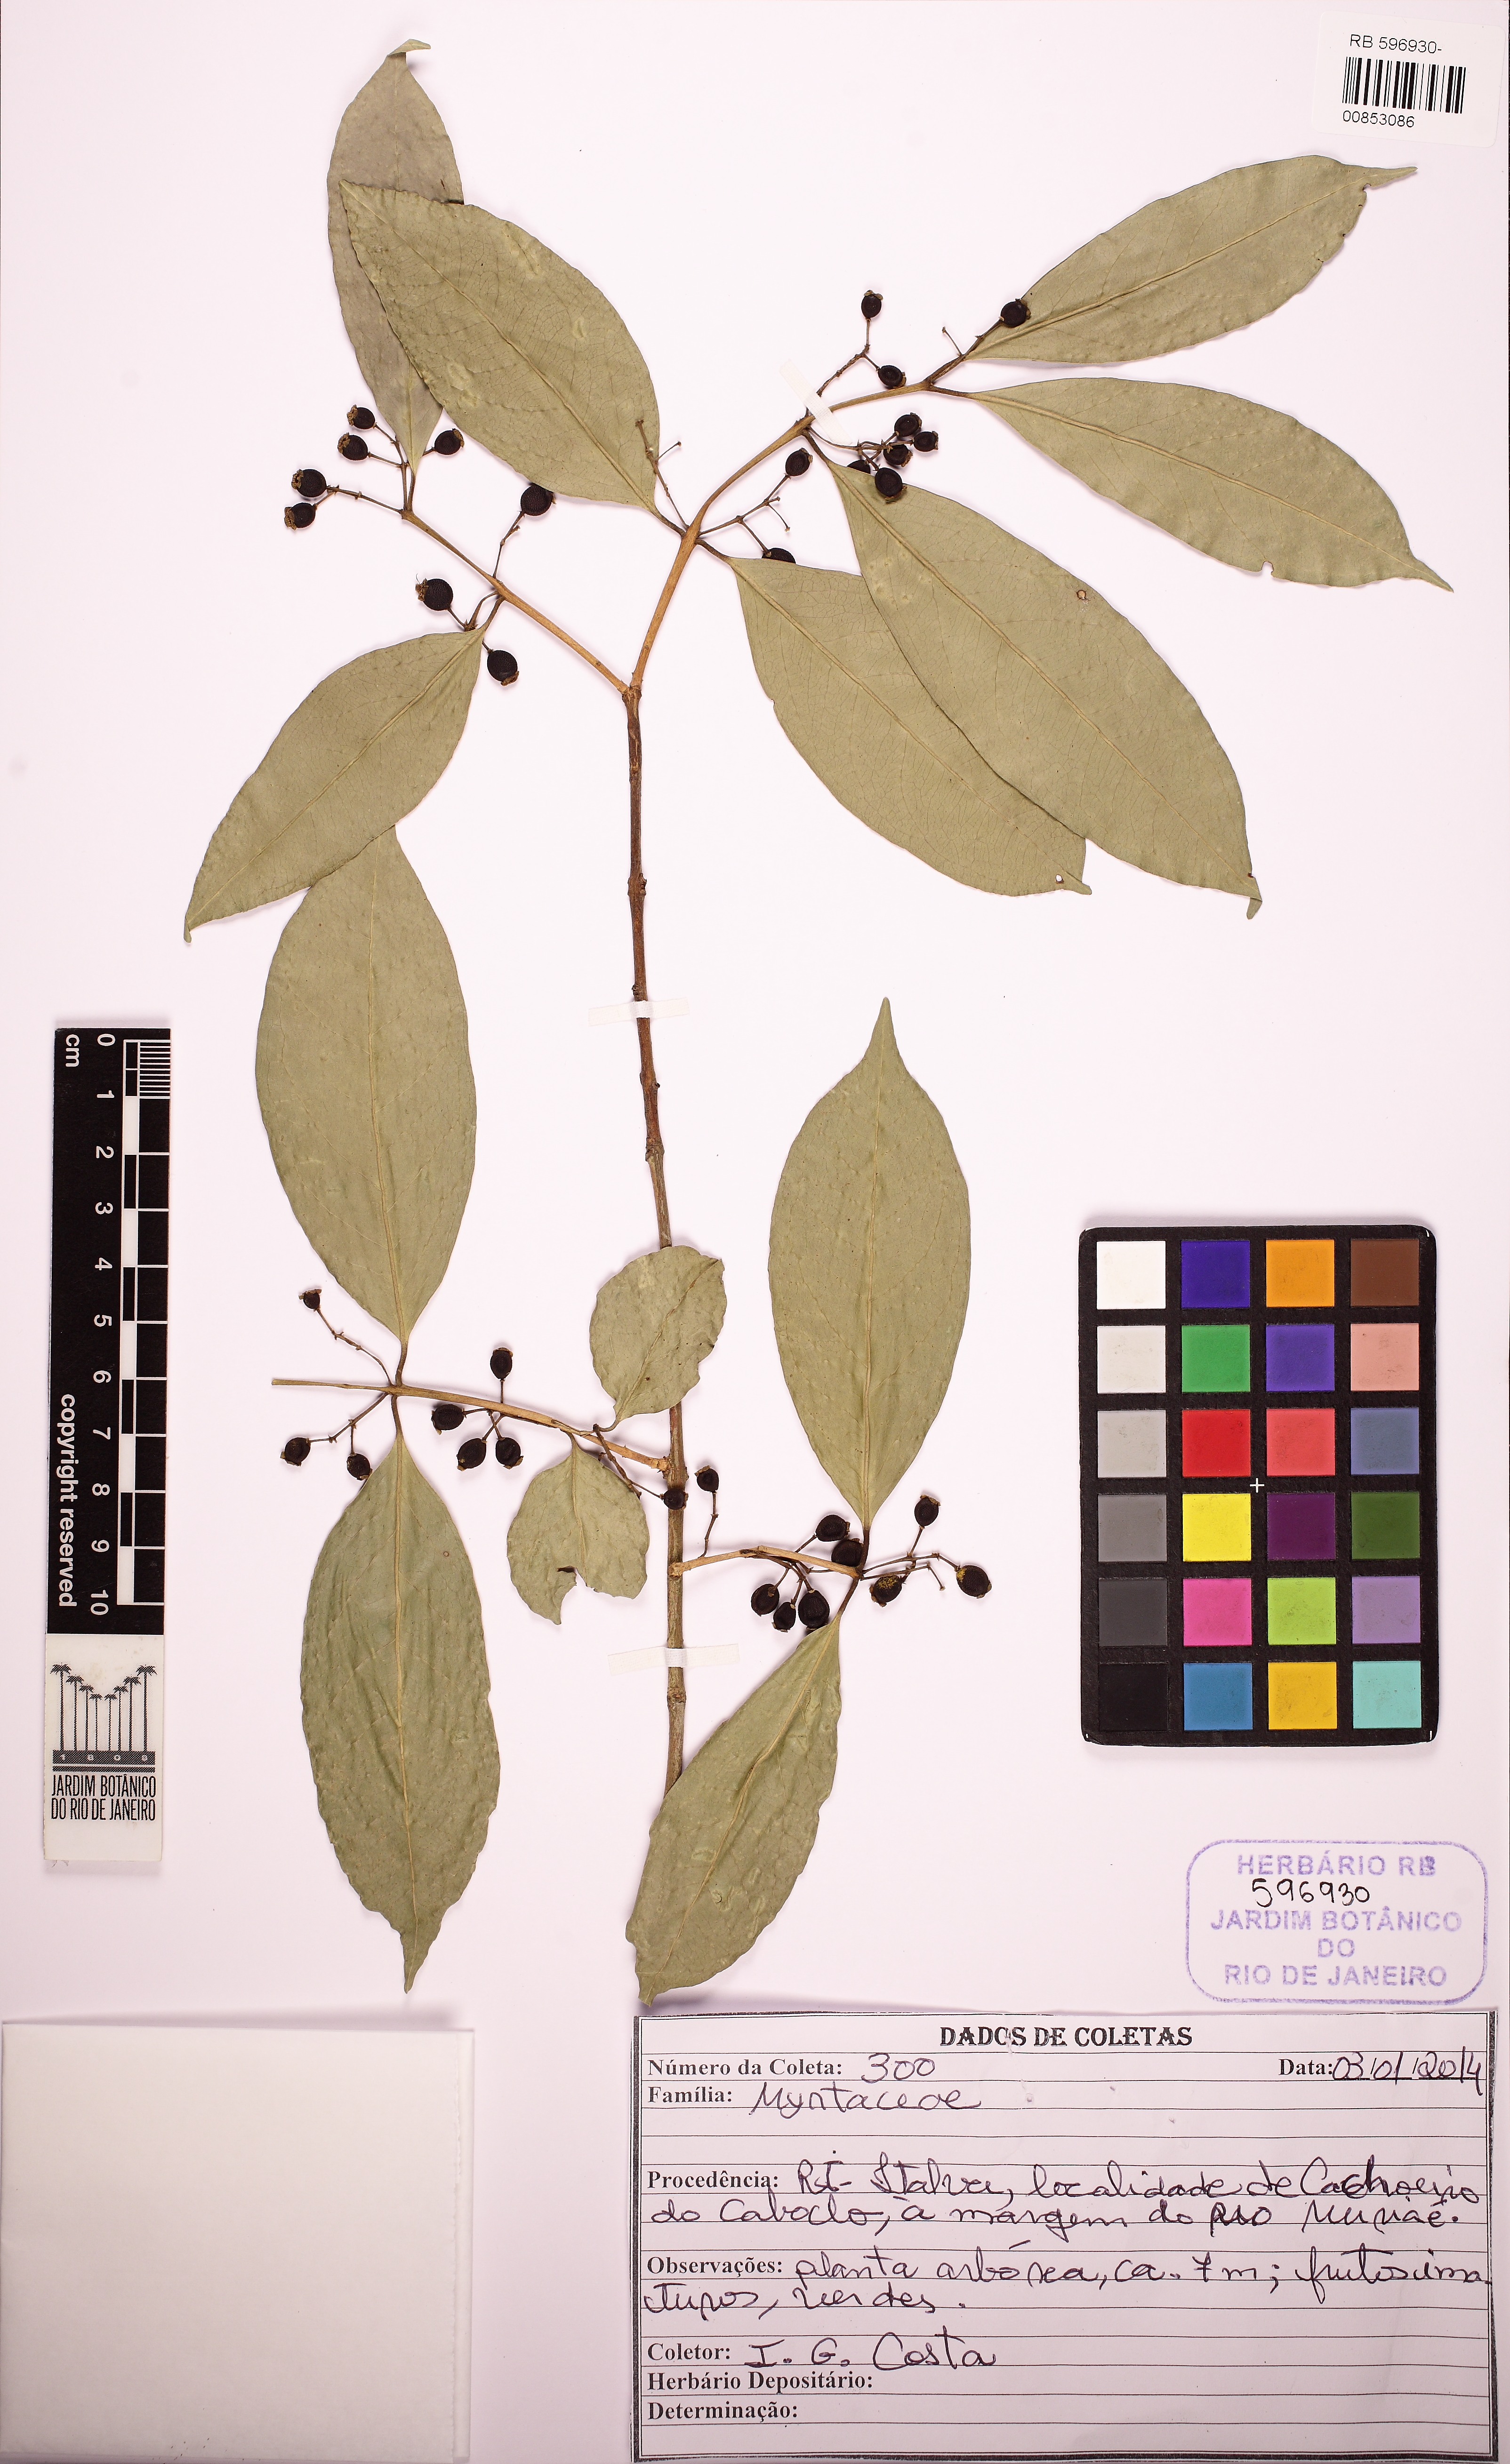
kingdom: Plantae
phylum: Tracheophyta
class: Magnoliopsida
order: Myrtales
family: Myrtaceae
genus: Eugenia
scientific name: Eugenia florida
